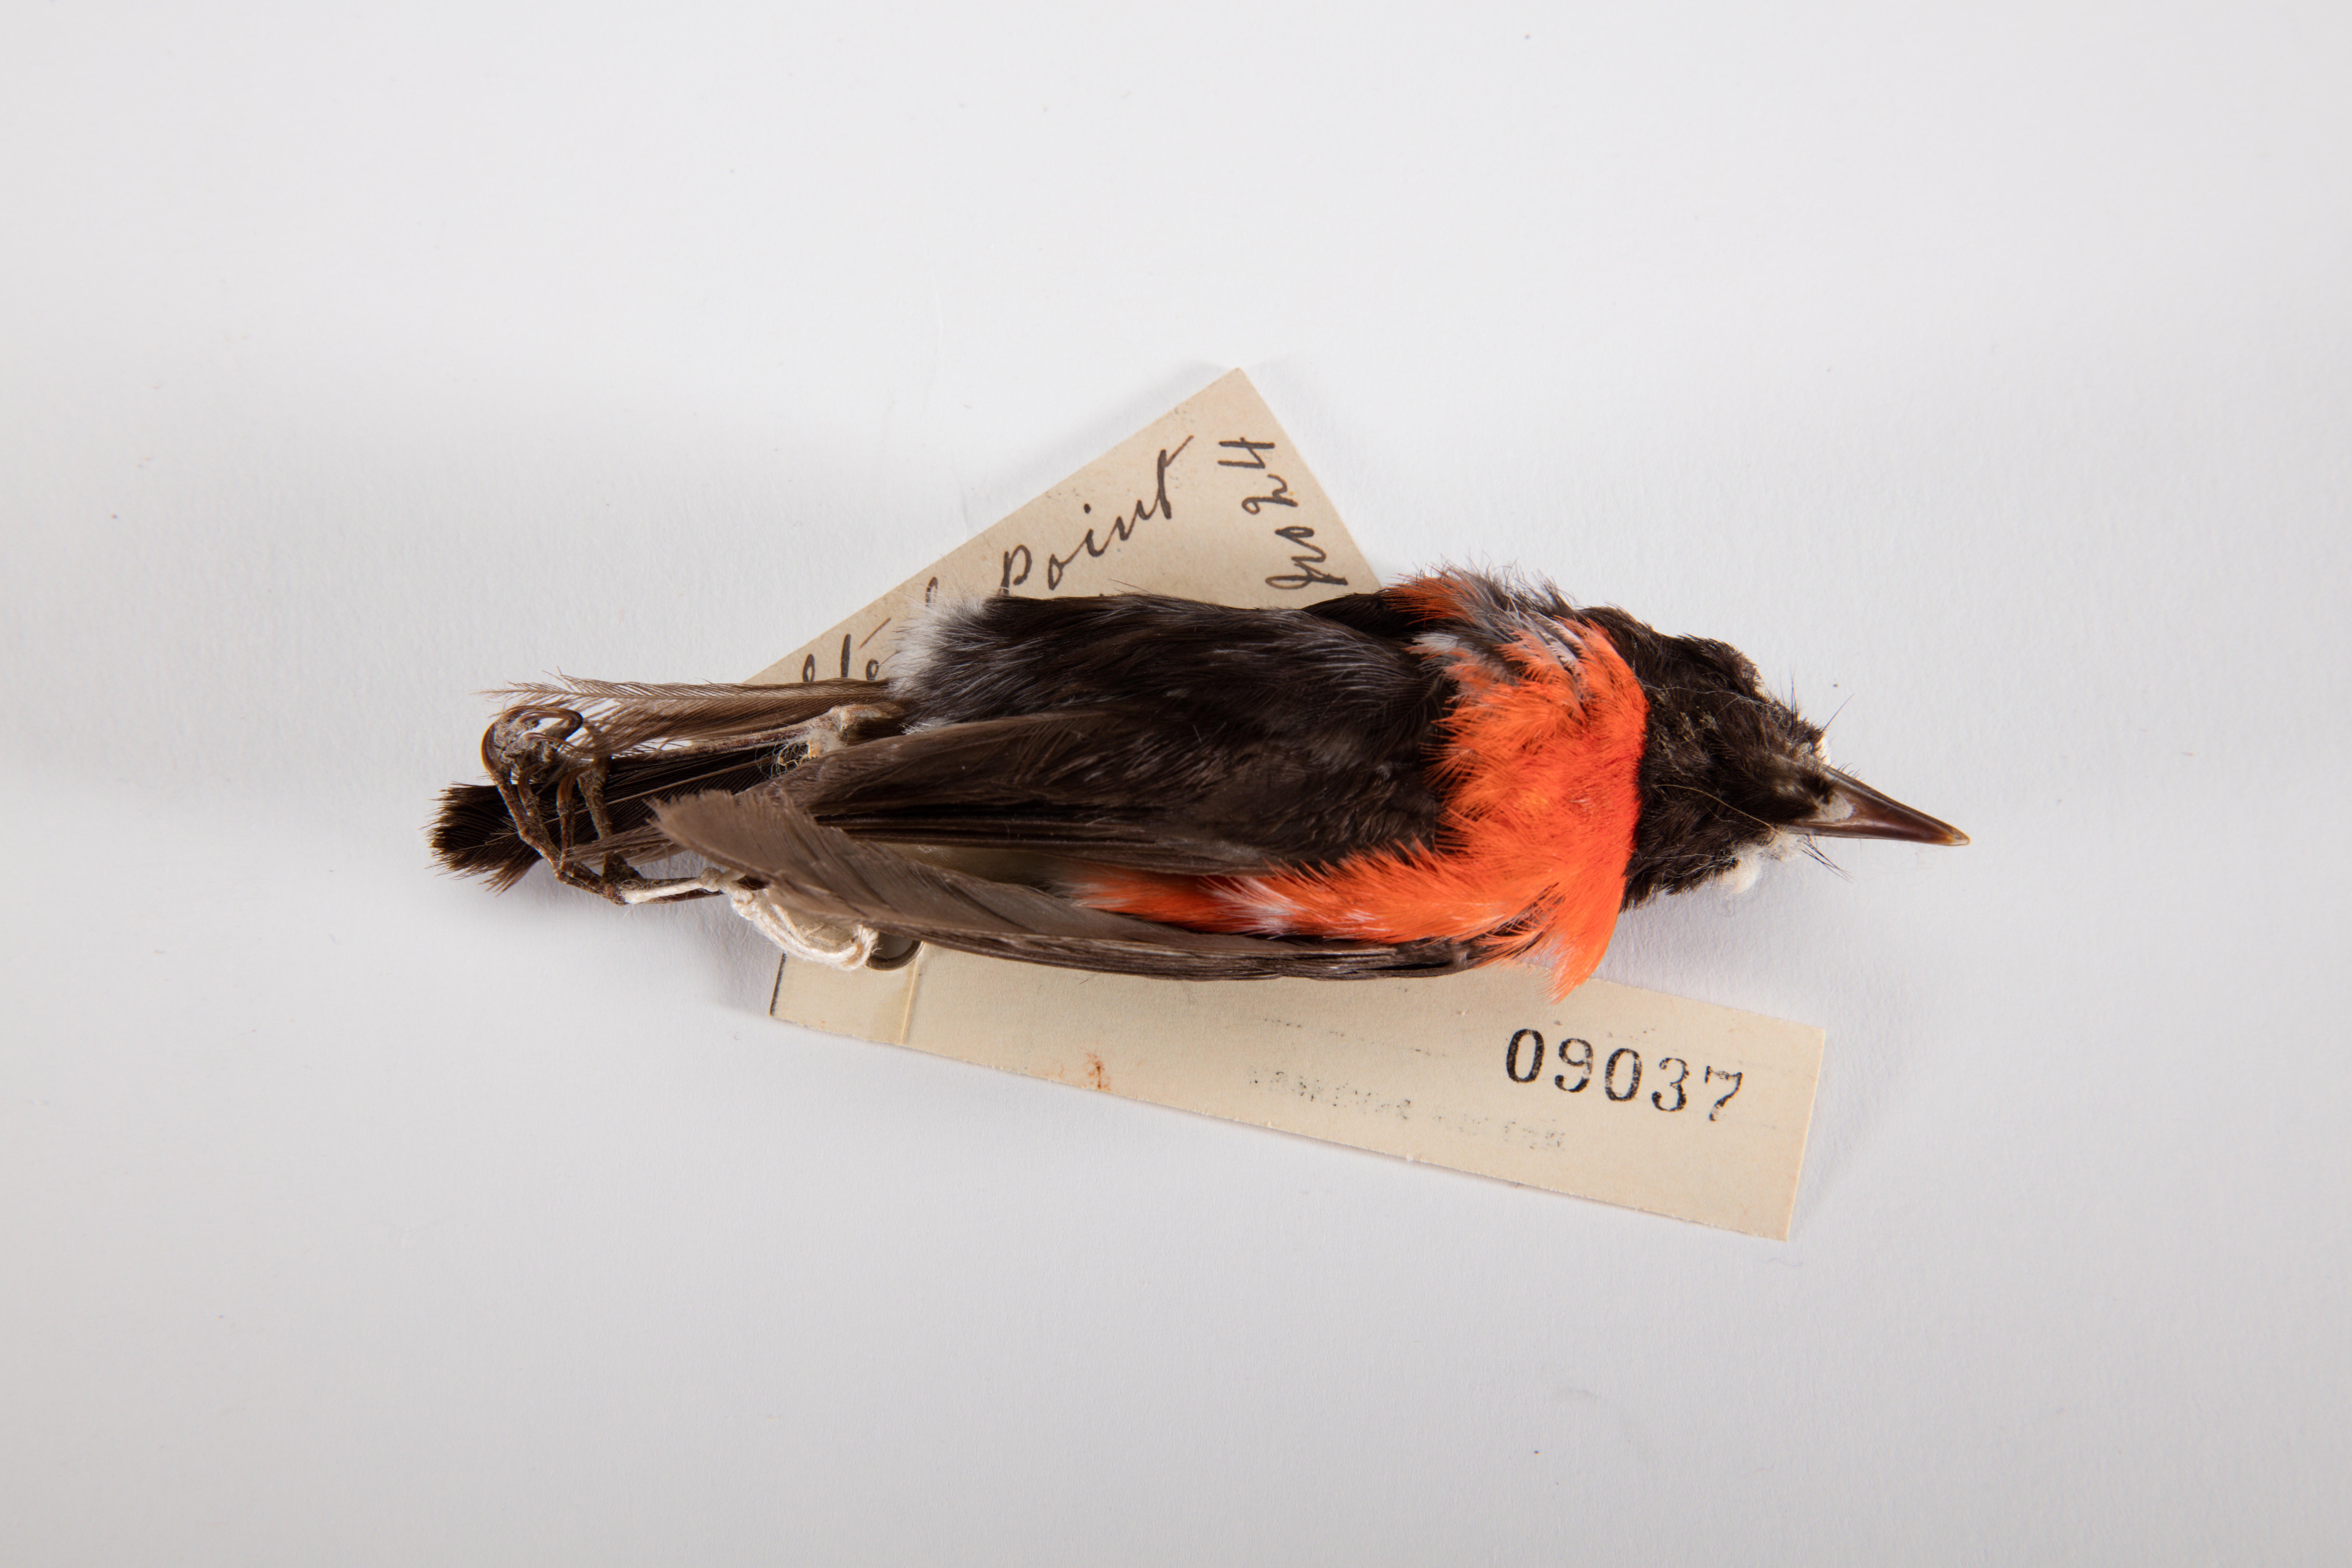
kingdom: Animalia
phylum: Chordata
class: Aves
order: Passeriformes
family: Petroicidae
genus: Petroica
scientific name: Petroica multicolor
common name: Pacific robin
